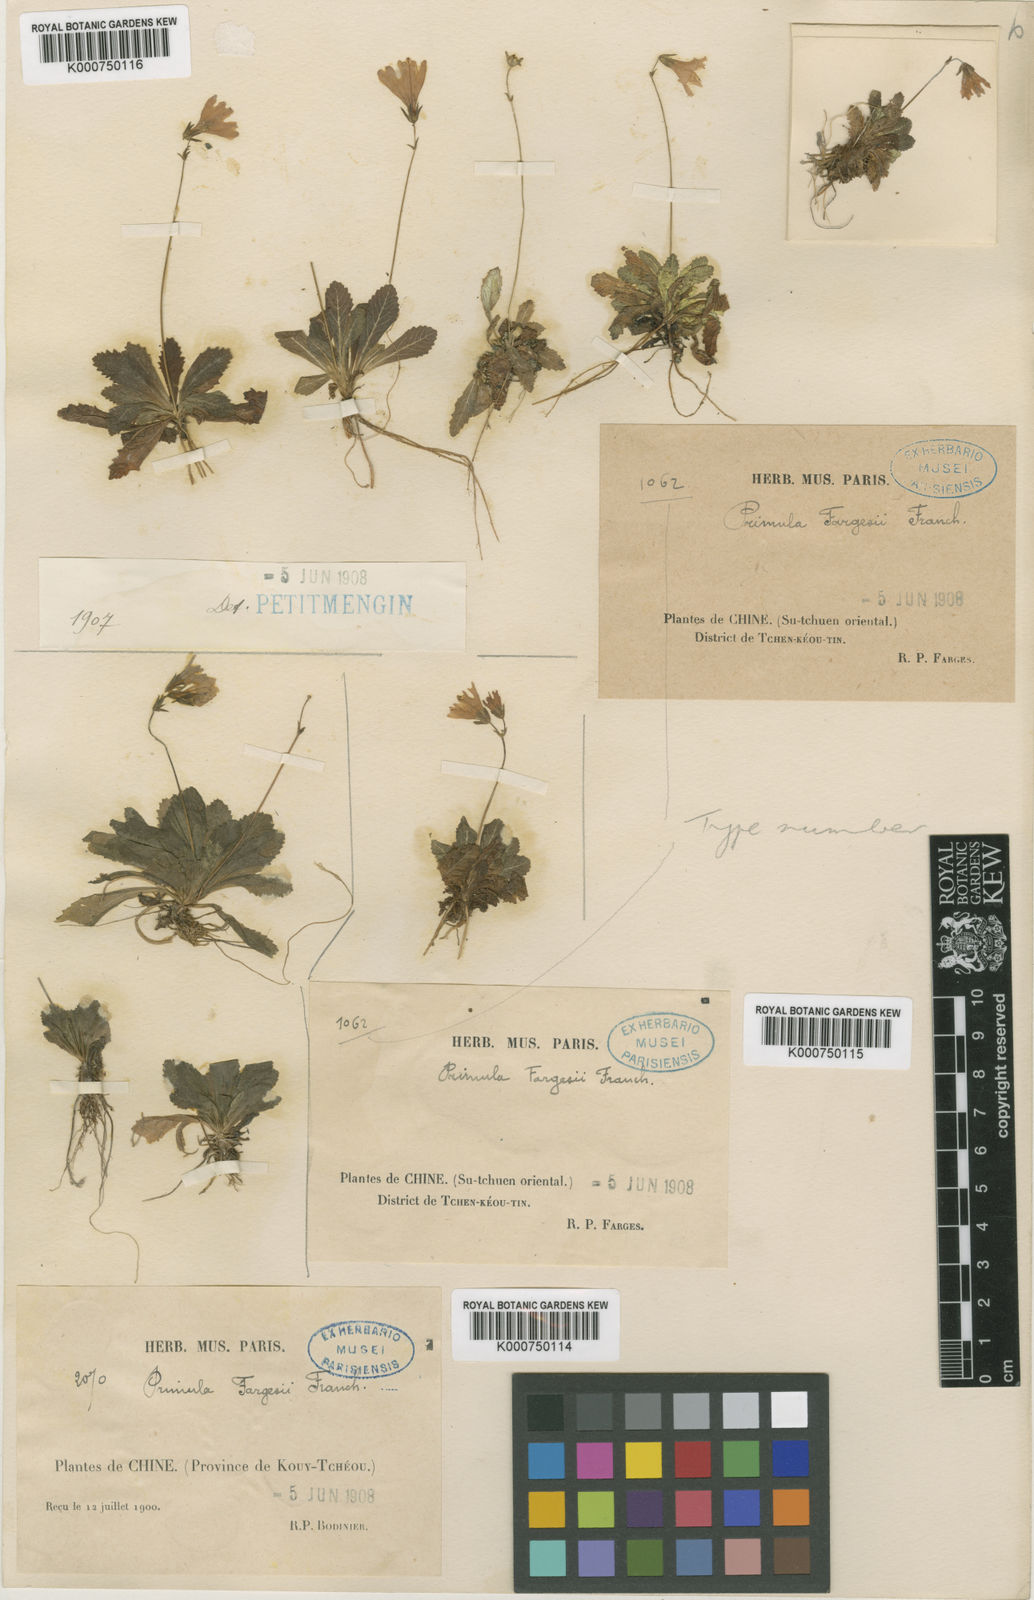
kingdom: Plantae
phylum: Tracheophyta
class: Magnoliopsida
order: Ericales
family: Primulaceae
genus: Primula
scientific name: Primula nutantiflora
